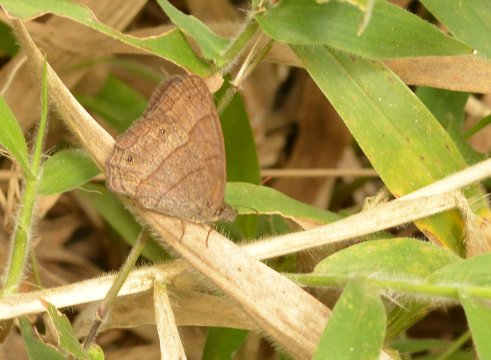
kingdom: Animalia
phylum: Arthropoda
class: Insecta
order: Lepidoptera
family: Nymphalidae
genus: Yphthimoides
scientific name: Yphthimoides renata
